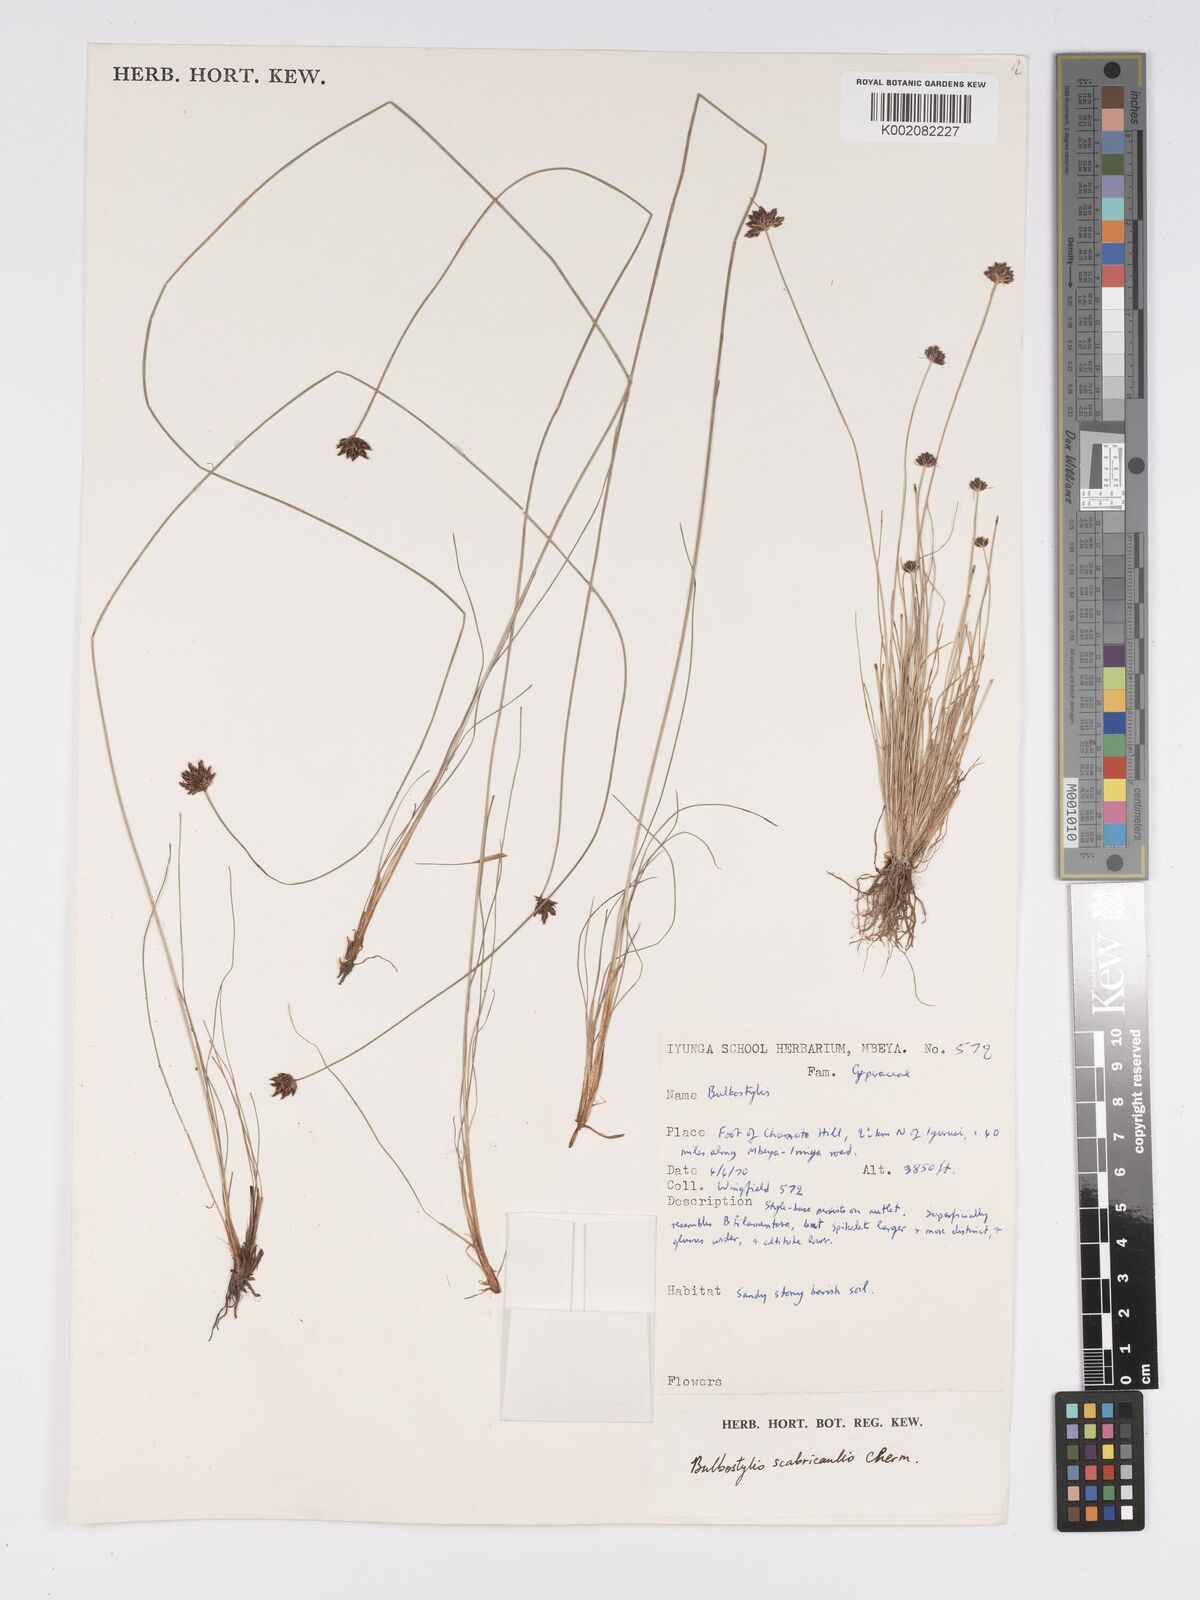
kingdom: Plantae
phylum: Tracheophyta
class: Liliopsida
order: Poales
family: Cyperaceae
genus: Bulbostylis
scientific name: Bulbostylis scabricaulis
